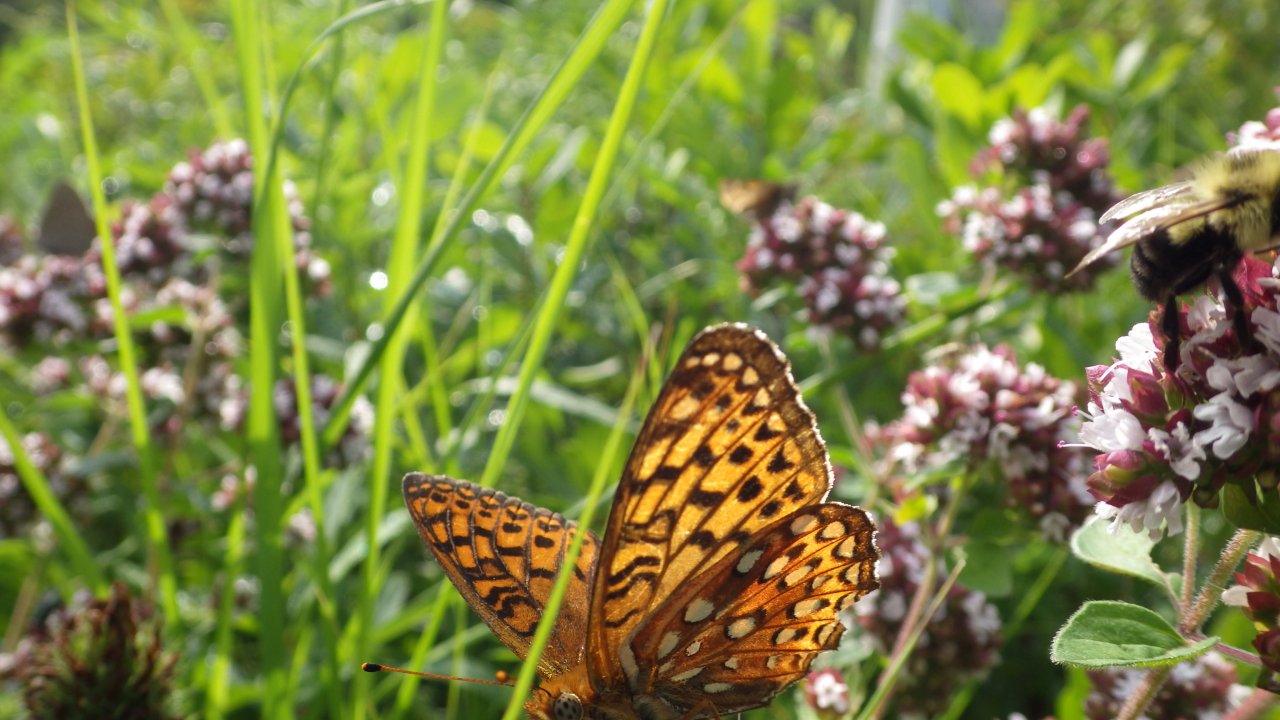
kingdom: Animalia
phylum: Arthropoda
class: Insecta
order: Lepidoptera
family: Nymphalidae
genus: Speyeria
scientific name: Speyeria atlantis
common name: Atlantis Fritillary
